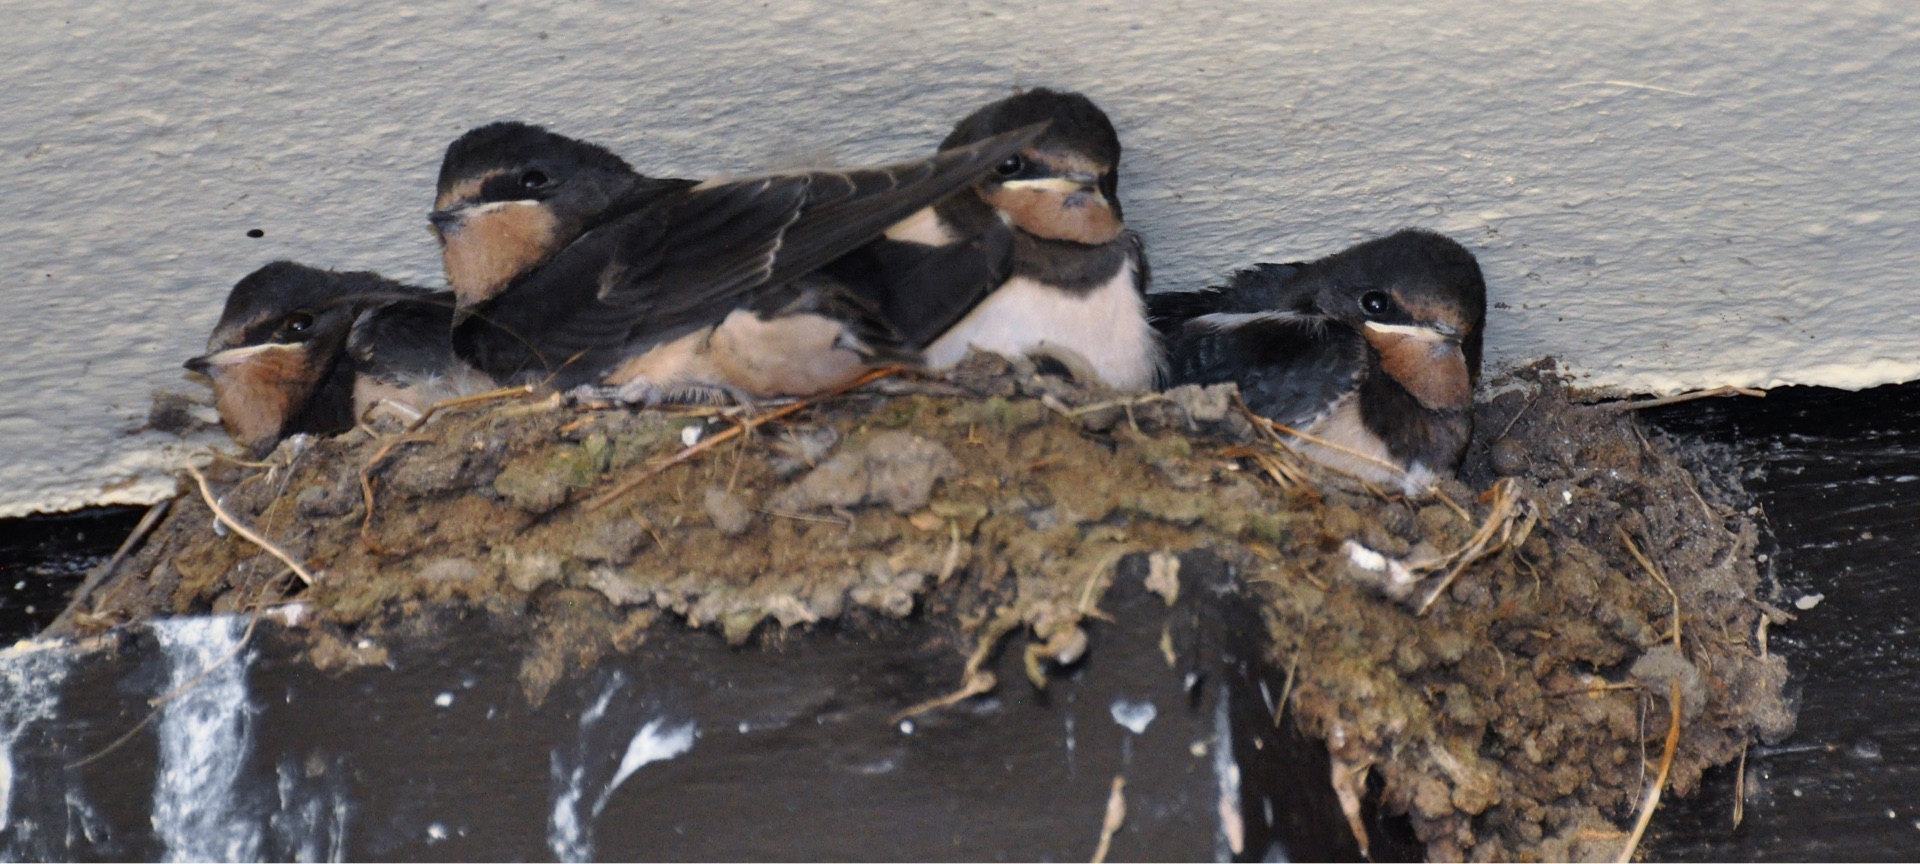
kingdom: Animalia
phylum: Chordata
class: Aves
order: Passeriformes
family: Hirundinidae
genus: Hirundo
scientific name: Hirundo rustica
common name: Landsvale
